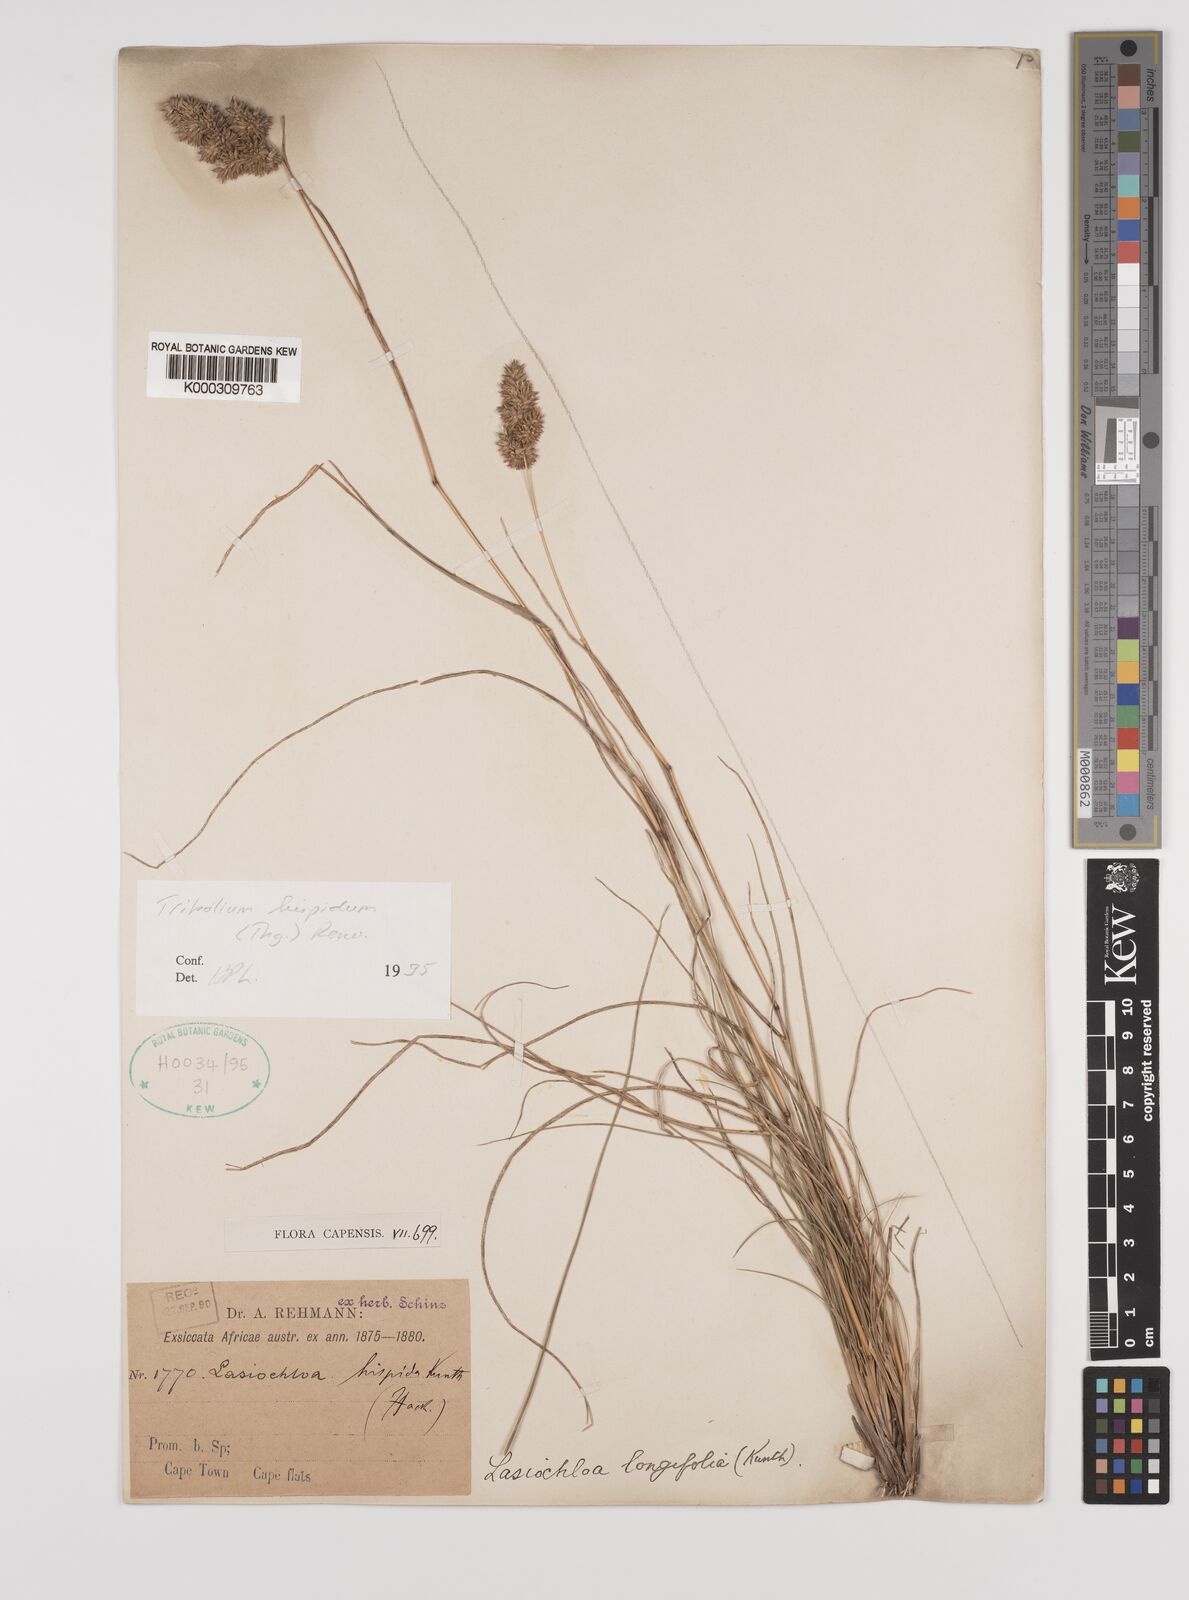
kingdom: Plantae
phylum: Tracheophyta
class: Liliopsida
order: Poales
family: Poaceae
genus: Tribolium
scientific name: Tribolium hispidum
